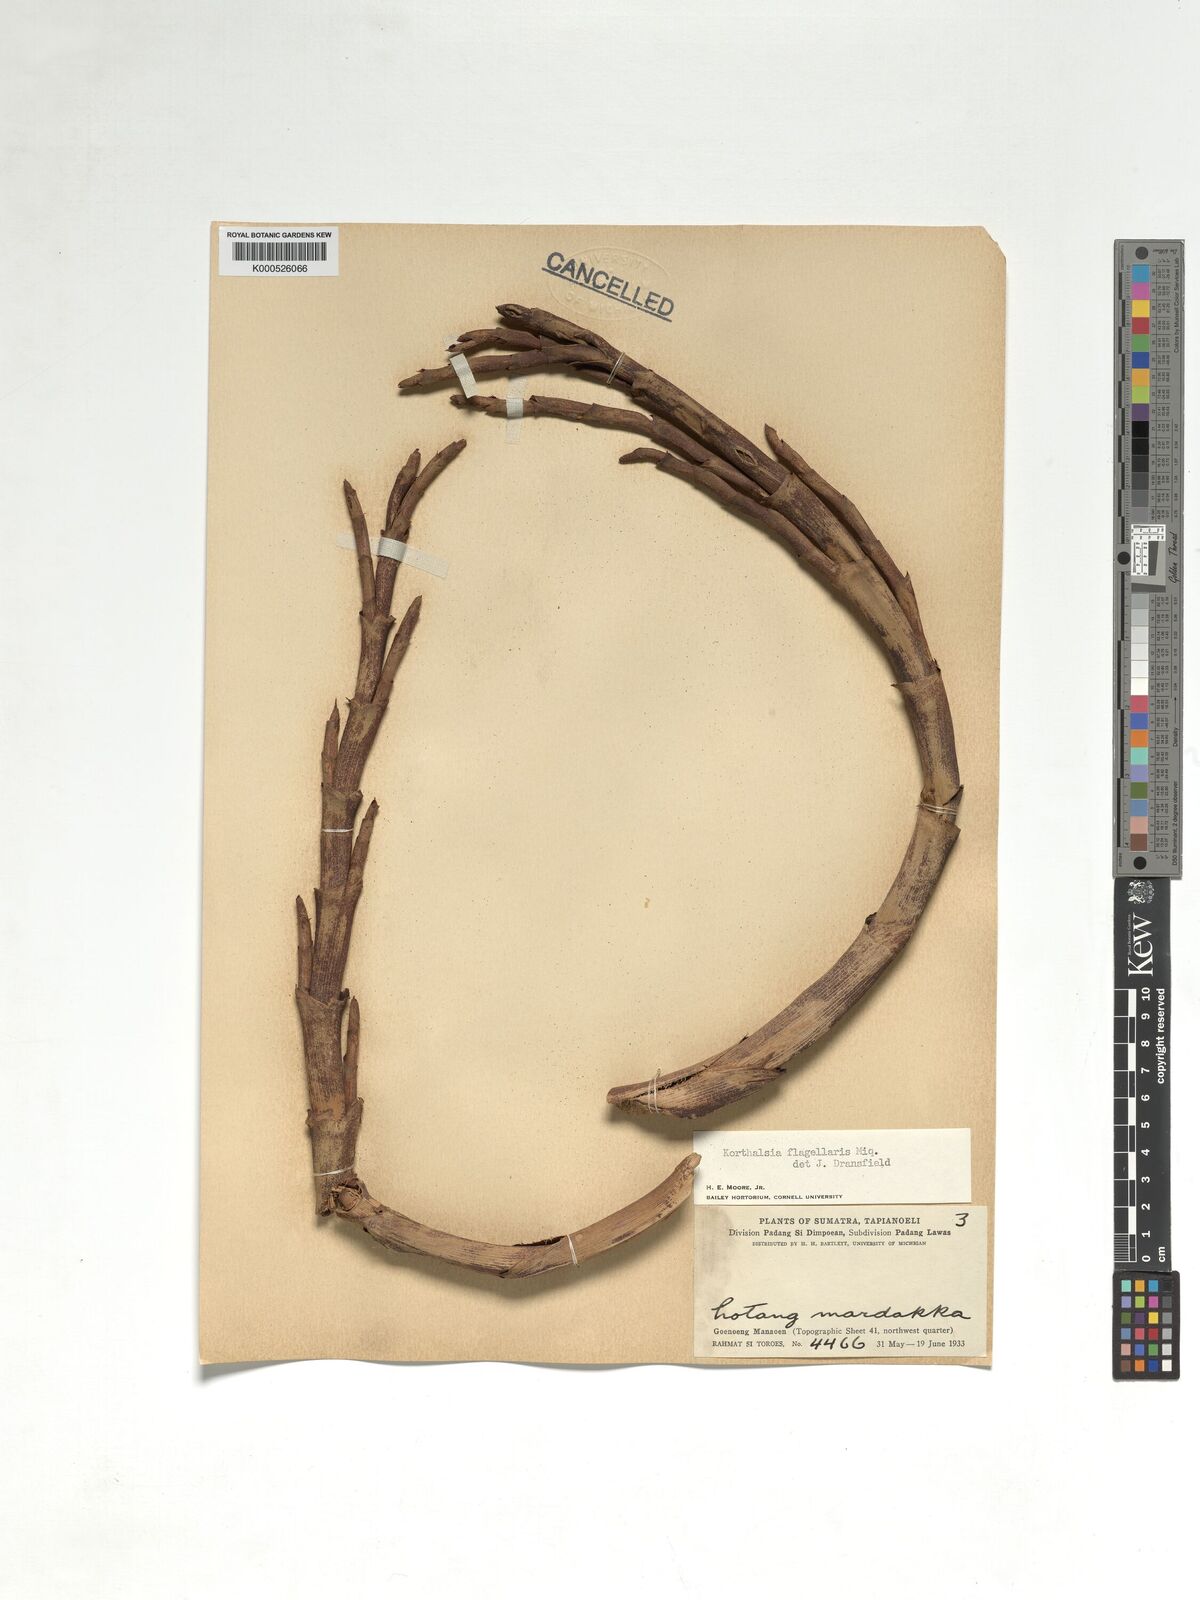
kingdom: Plantae
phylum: Tracheophyta
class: Liliopsida
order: Arecales
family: Arecaceae
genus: Korthalsia
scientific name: Korthalsia flagellaris
